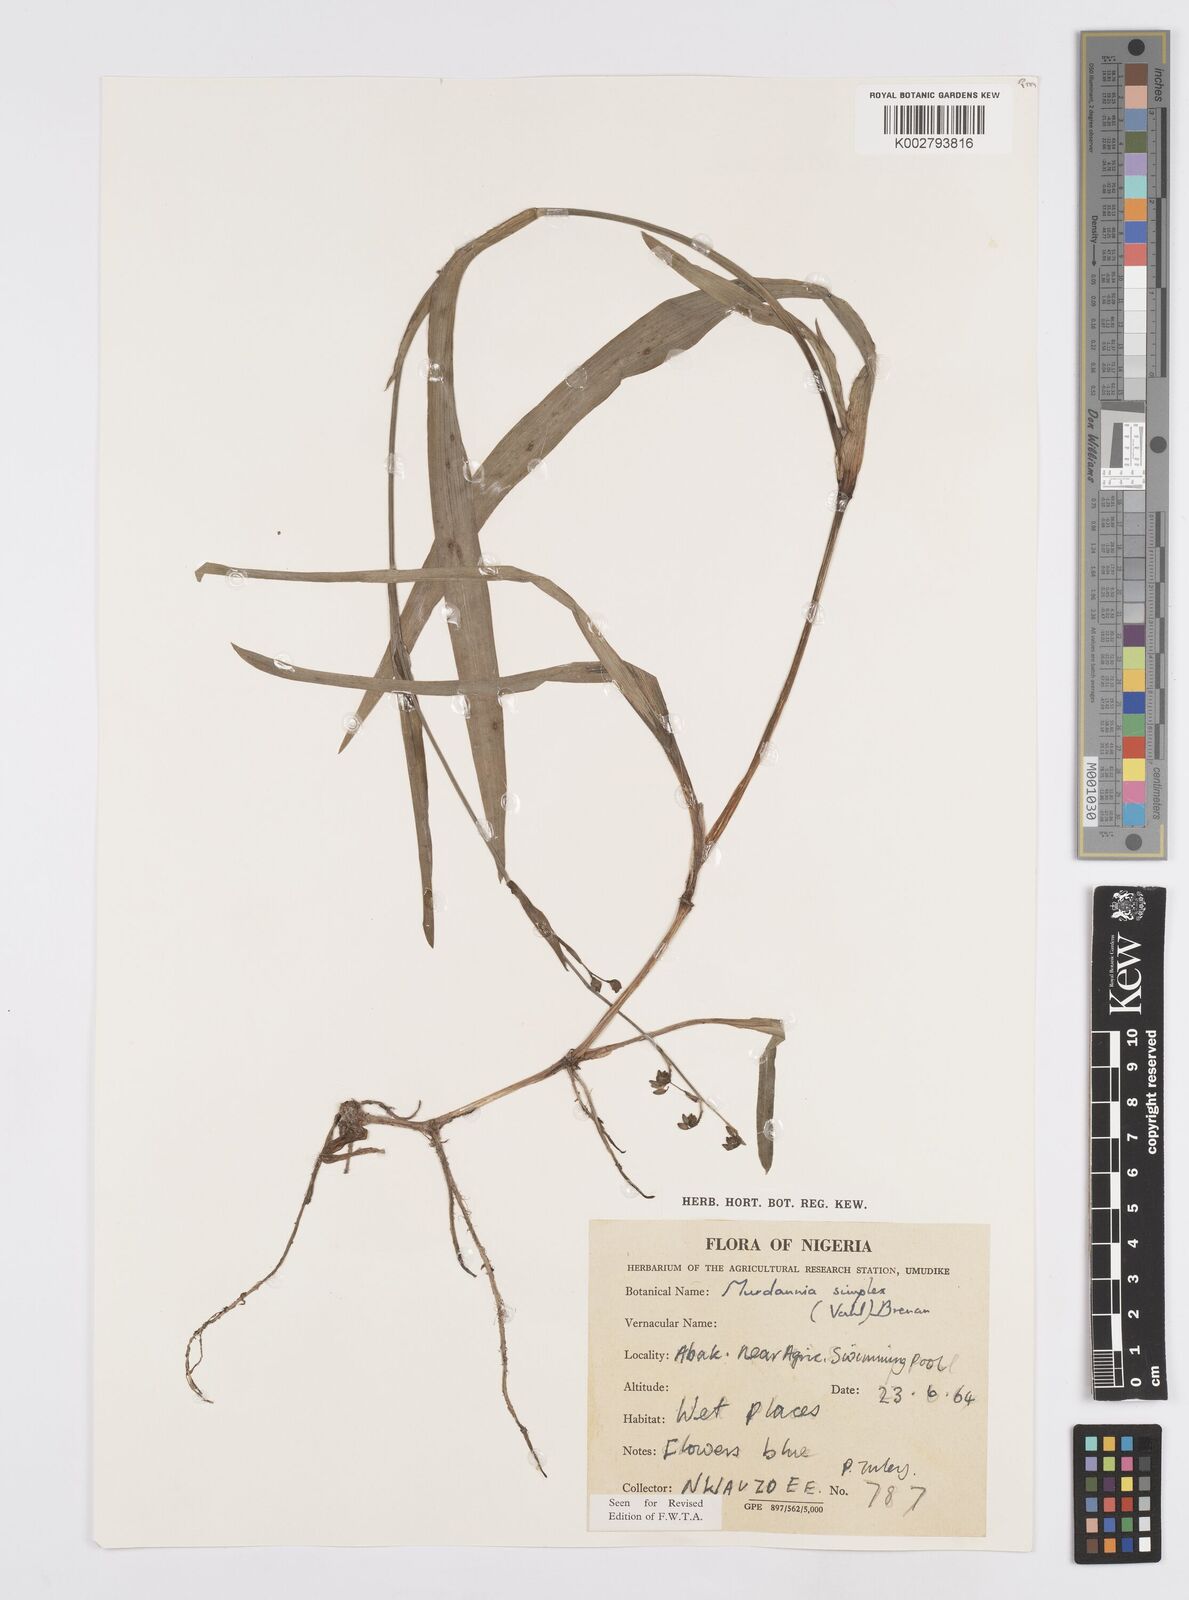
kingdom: Plantae
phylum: Tracheophyta
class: Liliopsida
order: Commelinales
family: Commelinaceae
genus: Murdannia
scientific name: Murdannia simplex
